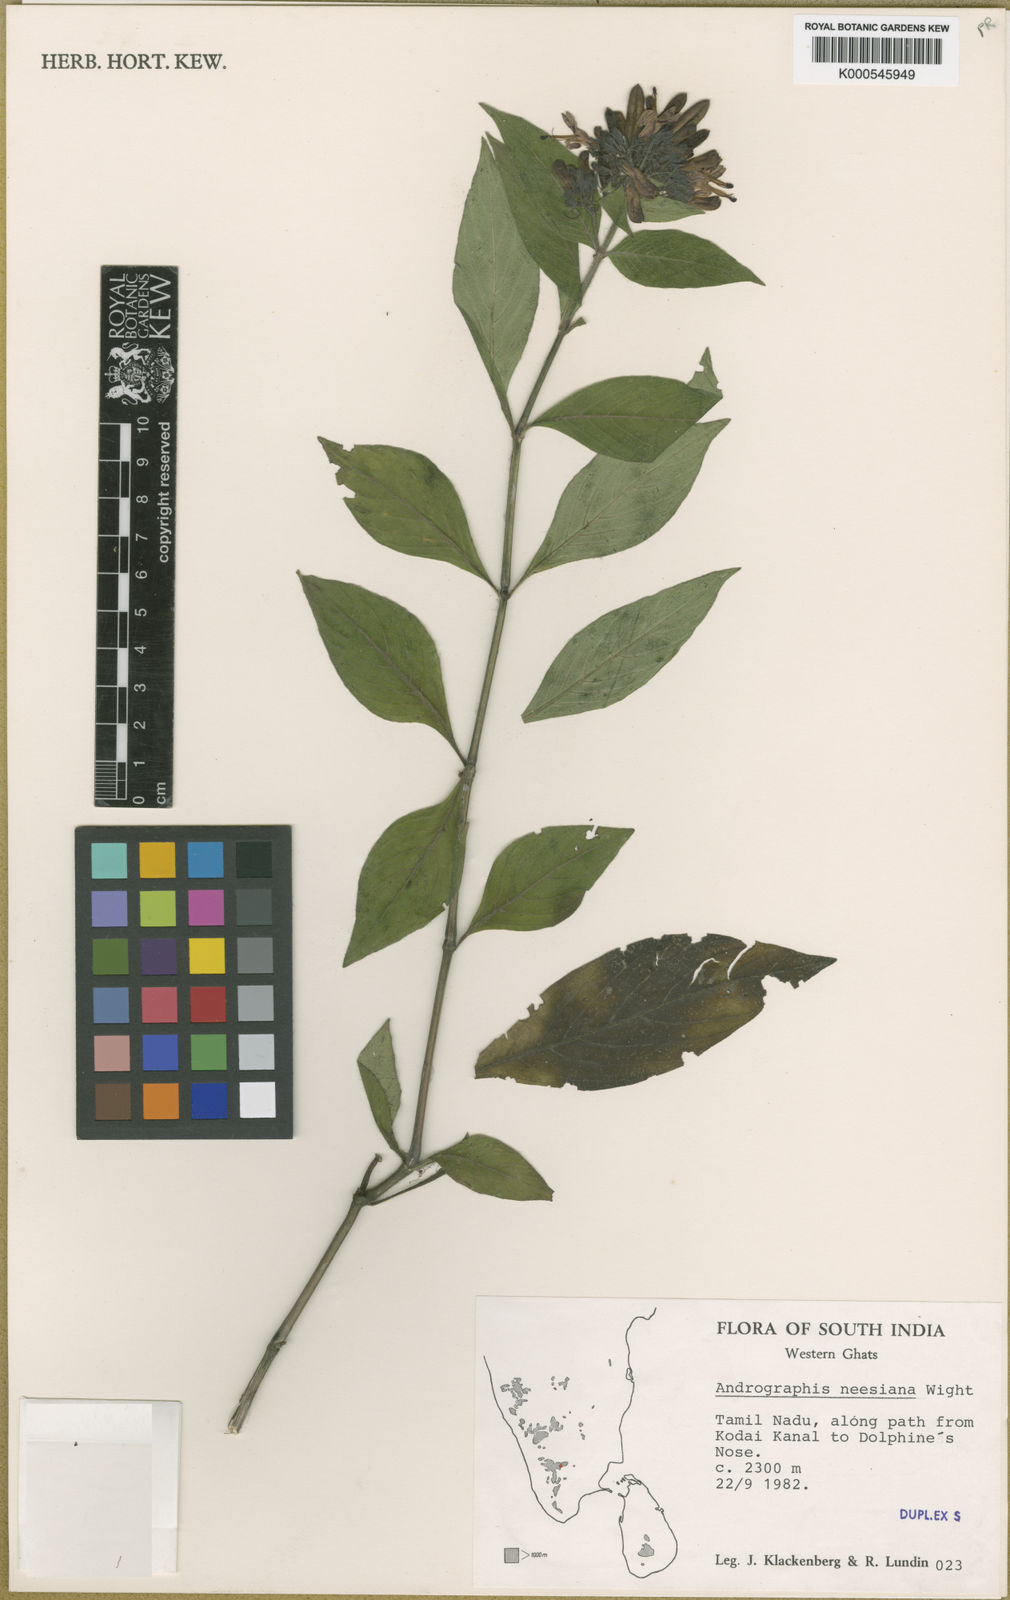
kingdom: Plantae
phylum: Tracheophyta
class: Magnoliopsida
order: Lamiales
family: Acanthaceae
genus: Andrographis
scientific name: Andrographis neesiana
